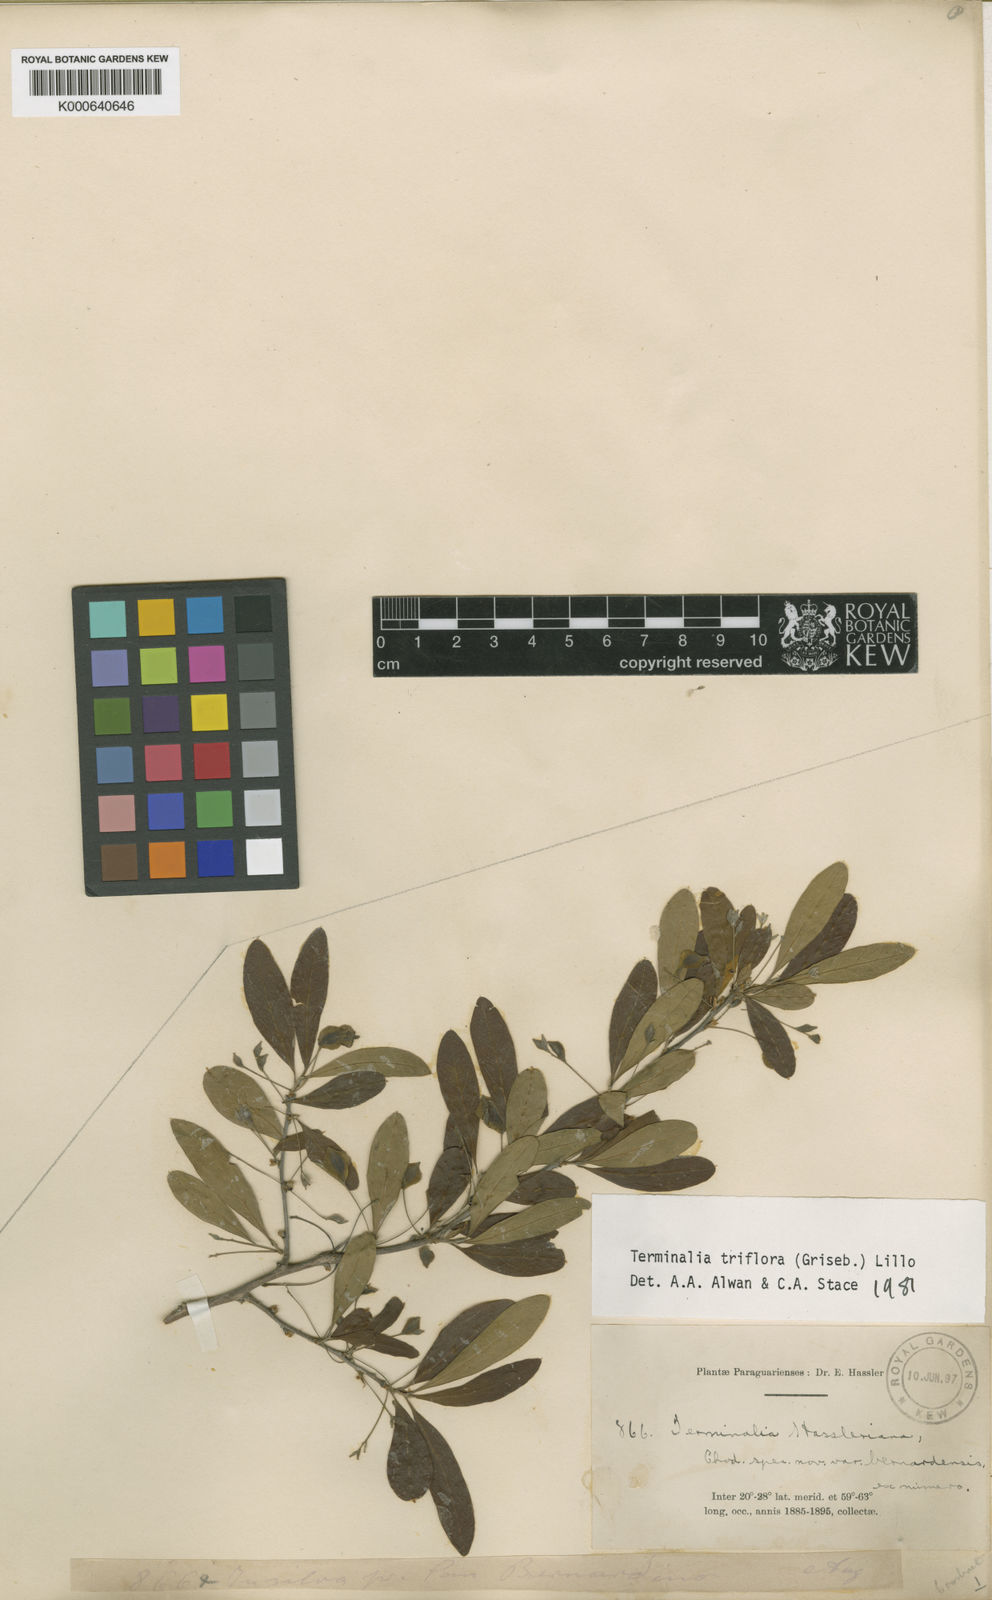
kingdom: Plantae
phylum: Tracheophyta
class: Magnoliopsida
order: Myrtales
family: Combretaceae
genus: Terminalia
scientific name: Terminalia triflora
